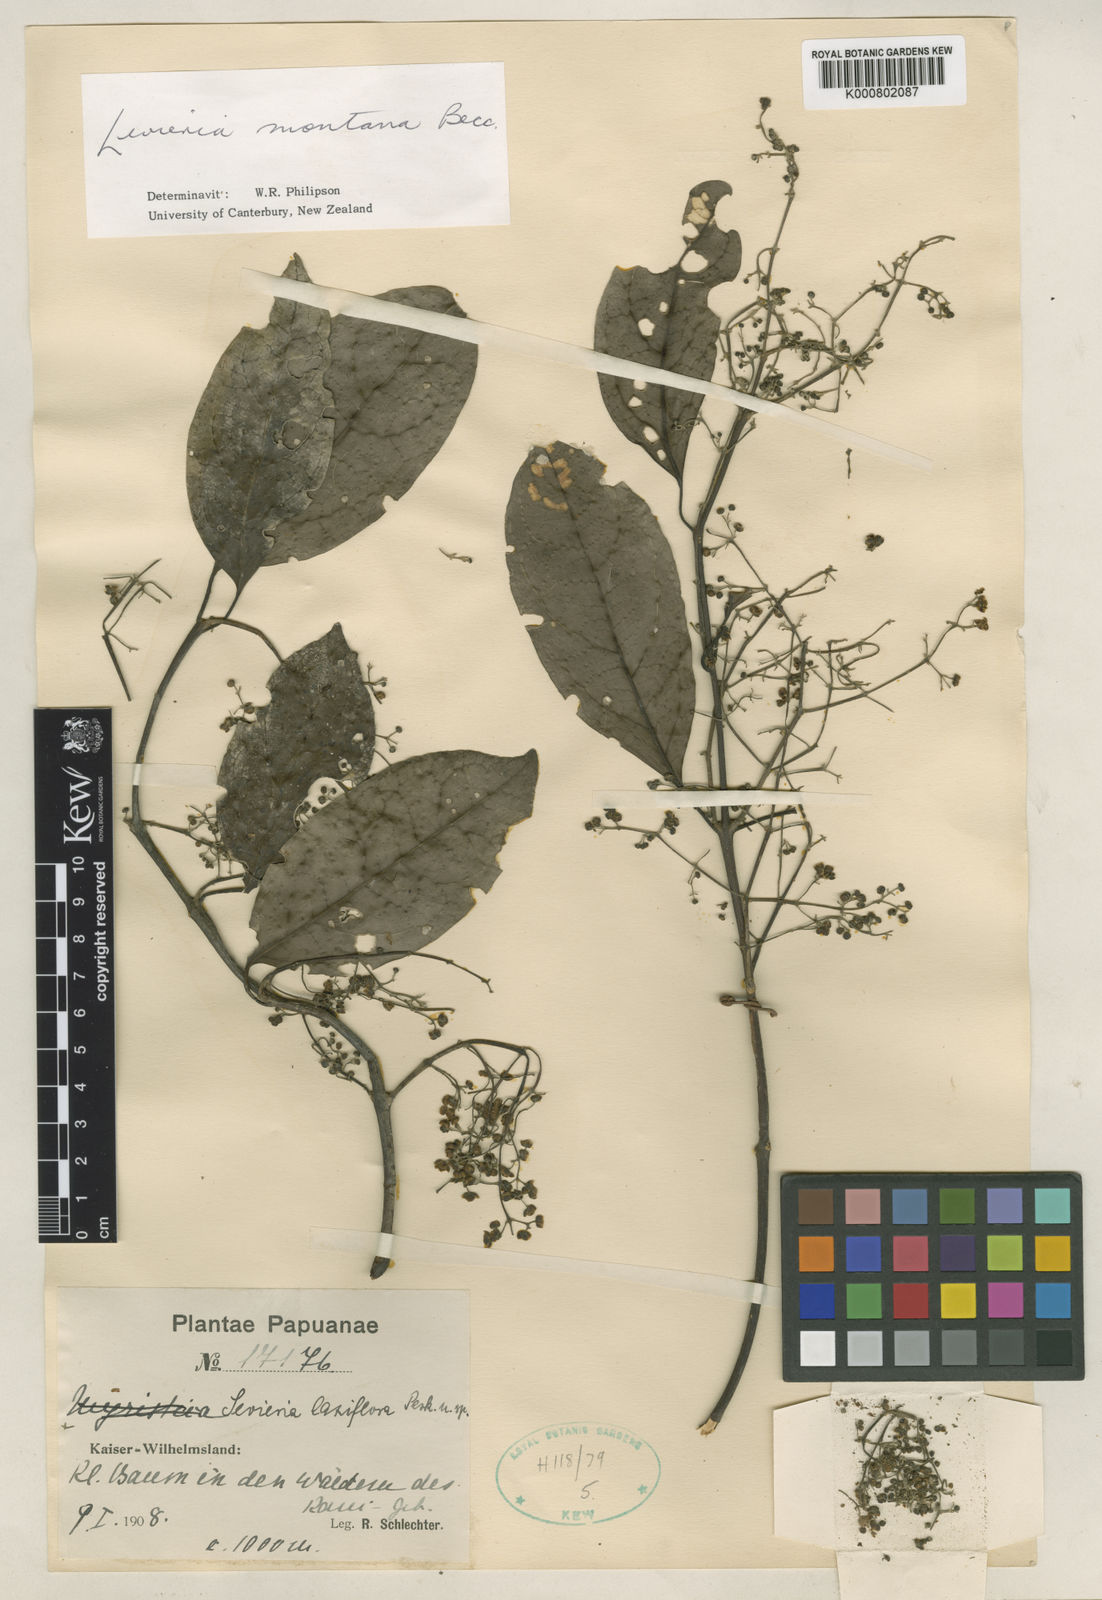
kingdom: Plantae
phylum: Tracheophyta
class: Magnoliopsida
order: Laurales
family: Monimiaceae
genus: Levieria
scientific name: Levieria montana
